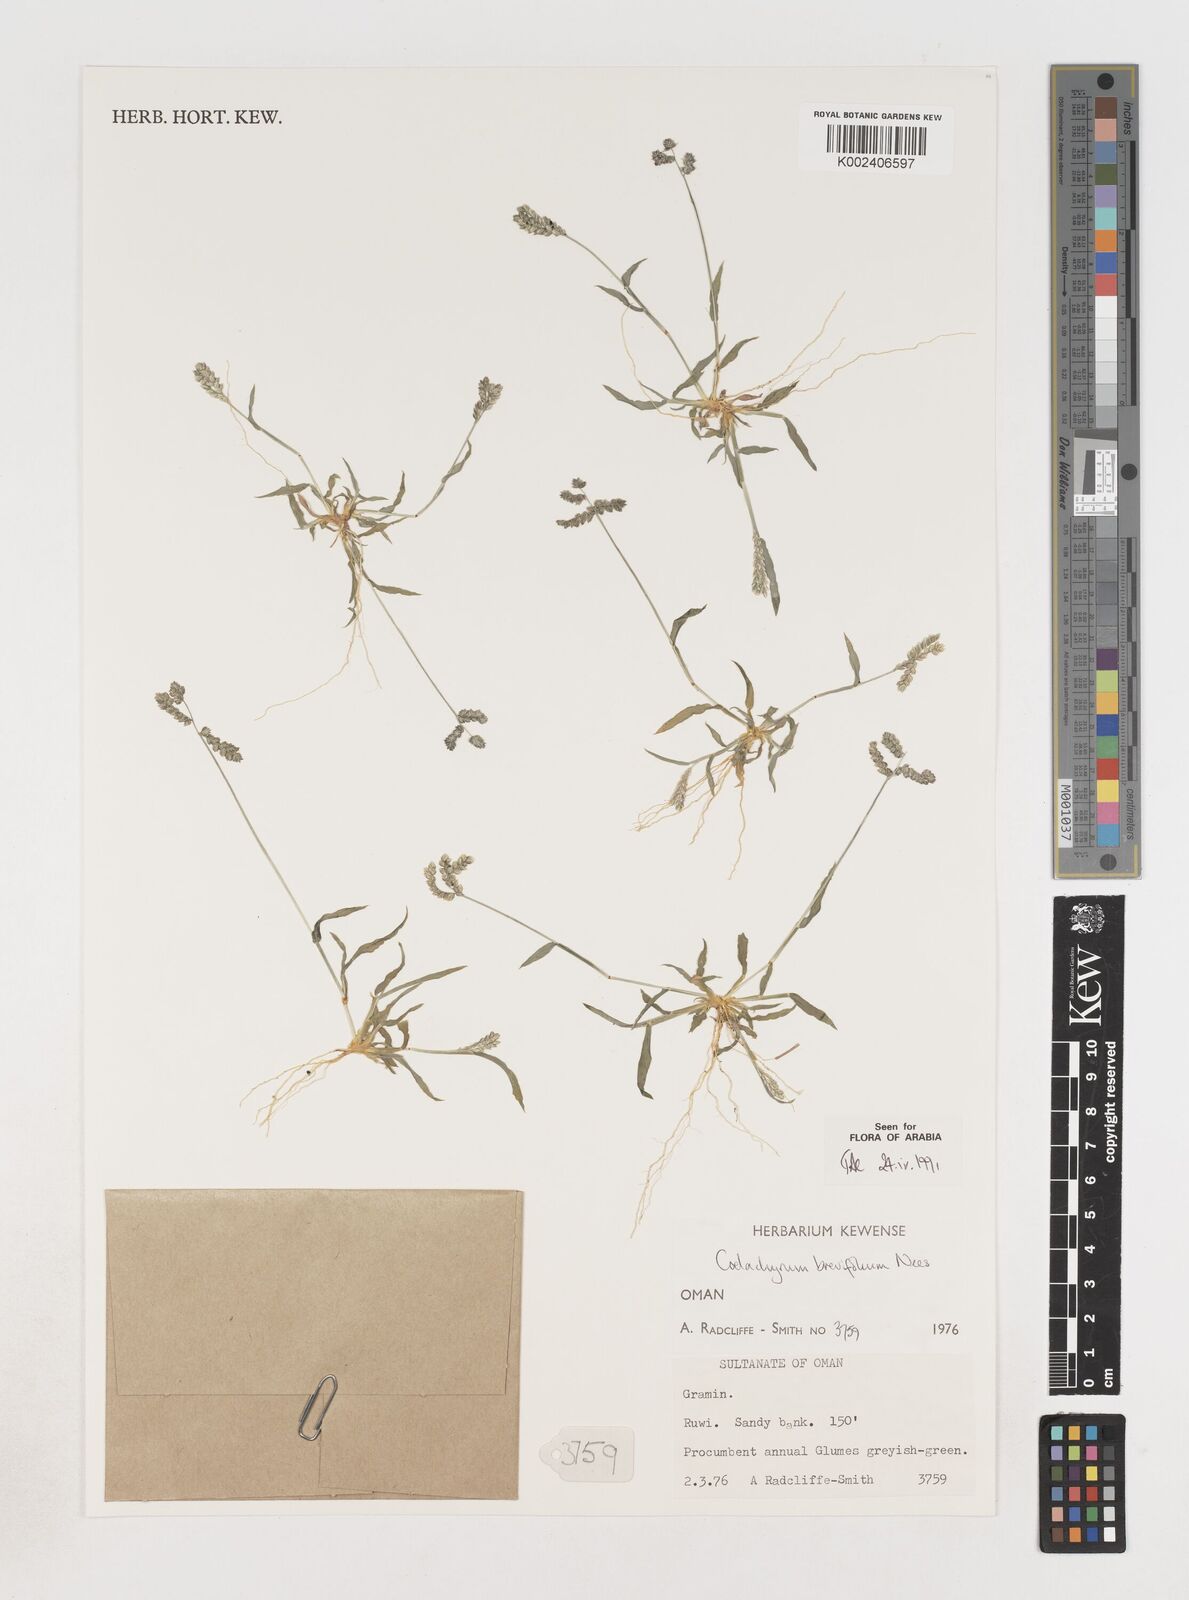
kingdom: Plantae
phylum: Tracheophyta
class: Liliopsida
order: Poales
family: Poaceae
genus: Coelachyrum
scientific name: Coelachyrum brevifolium
